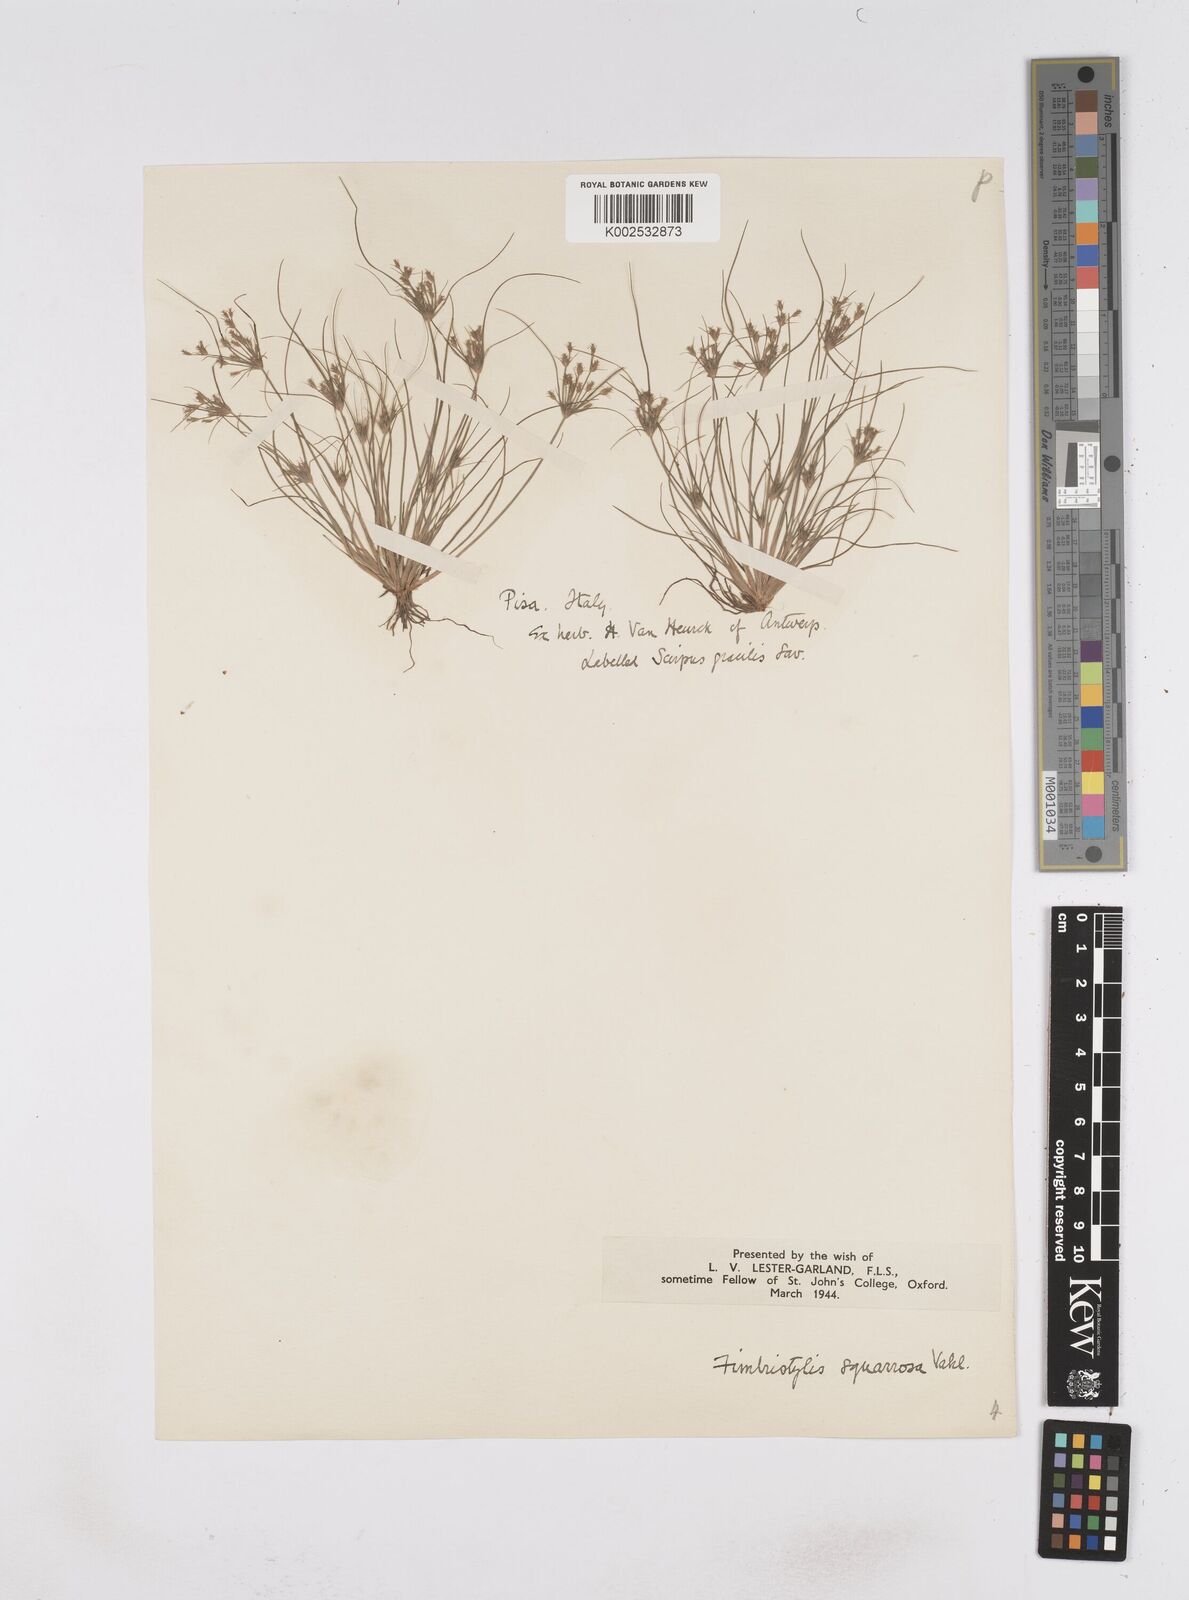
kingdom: Plantae
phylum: Tracheophyta
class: Liliopsida
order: Poales
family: Cyperaceae
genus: Fimbristylis
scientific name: Fimbristylis squarrosa
